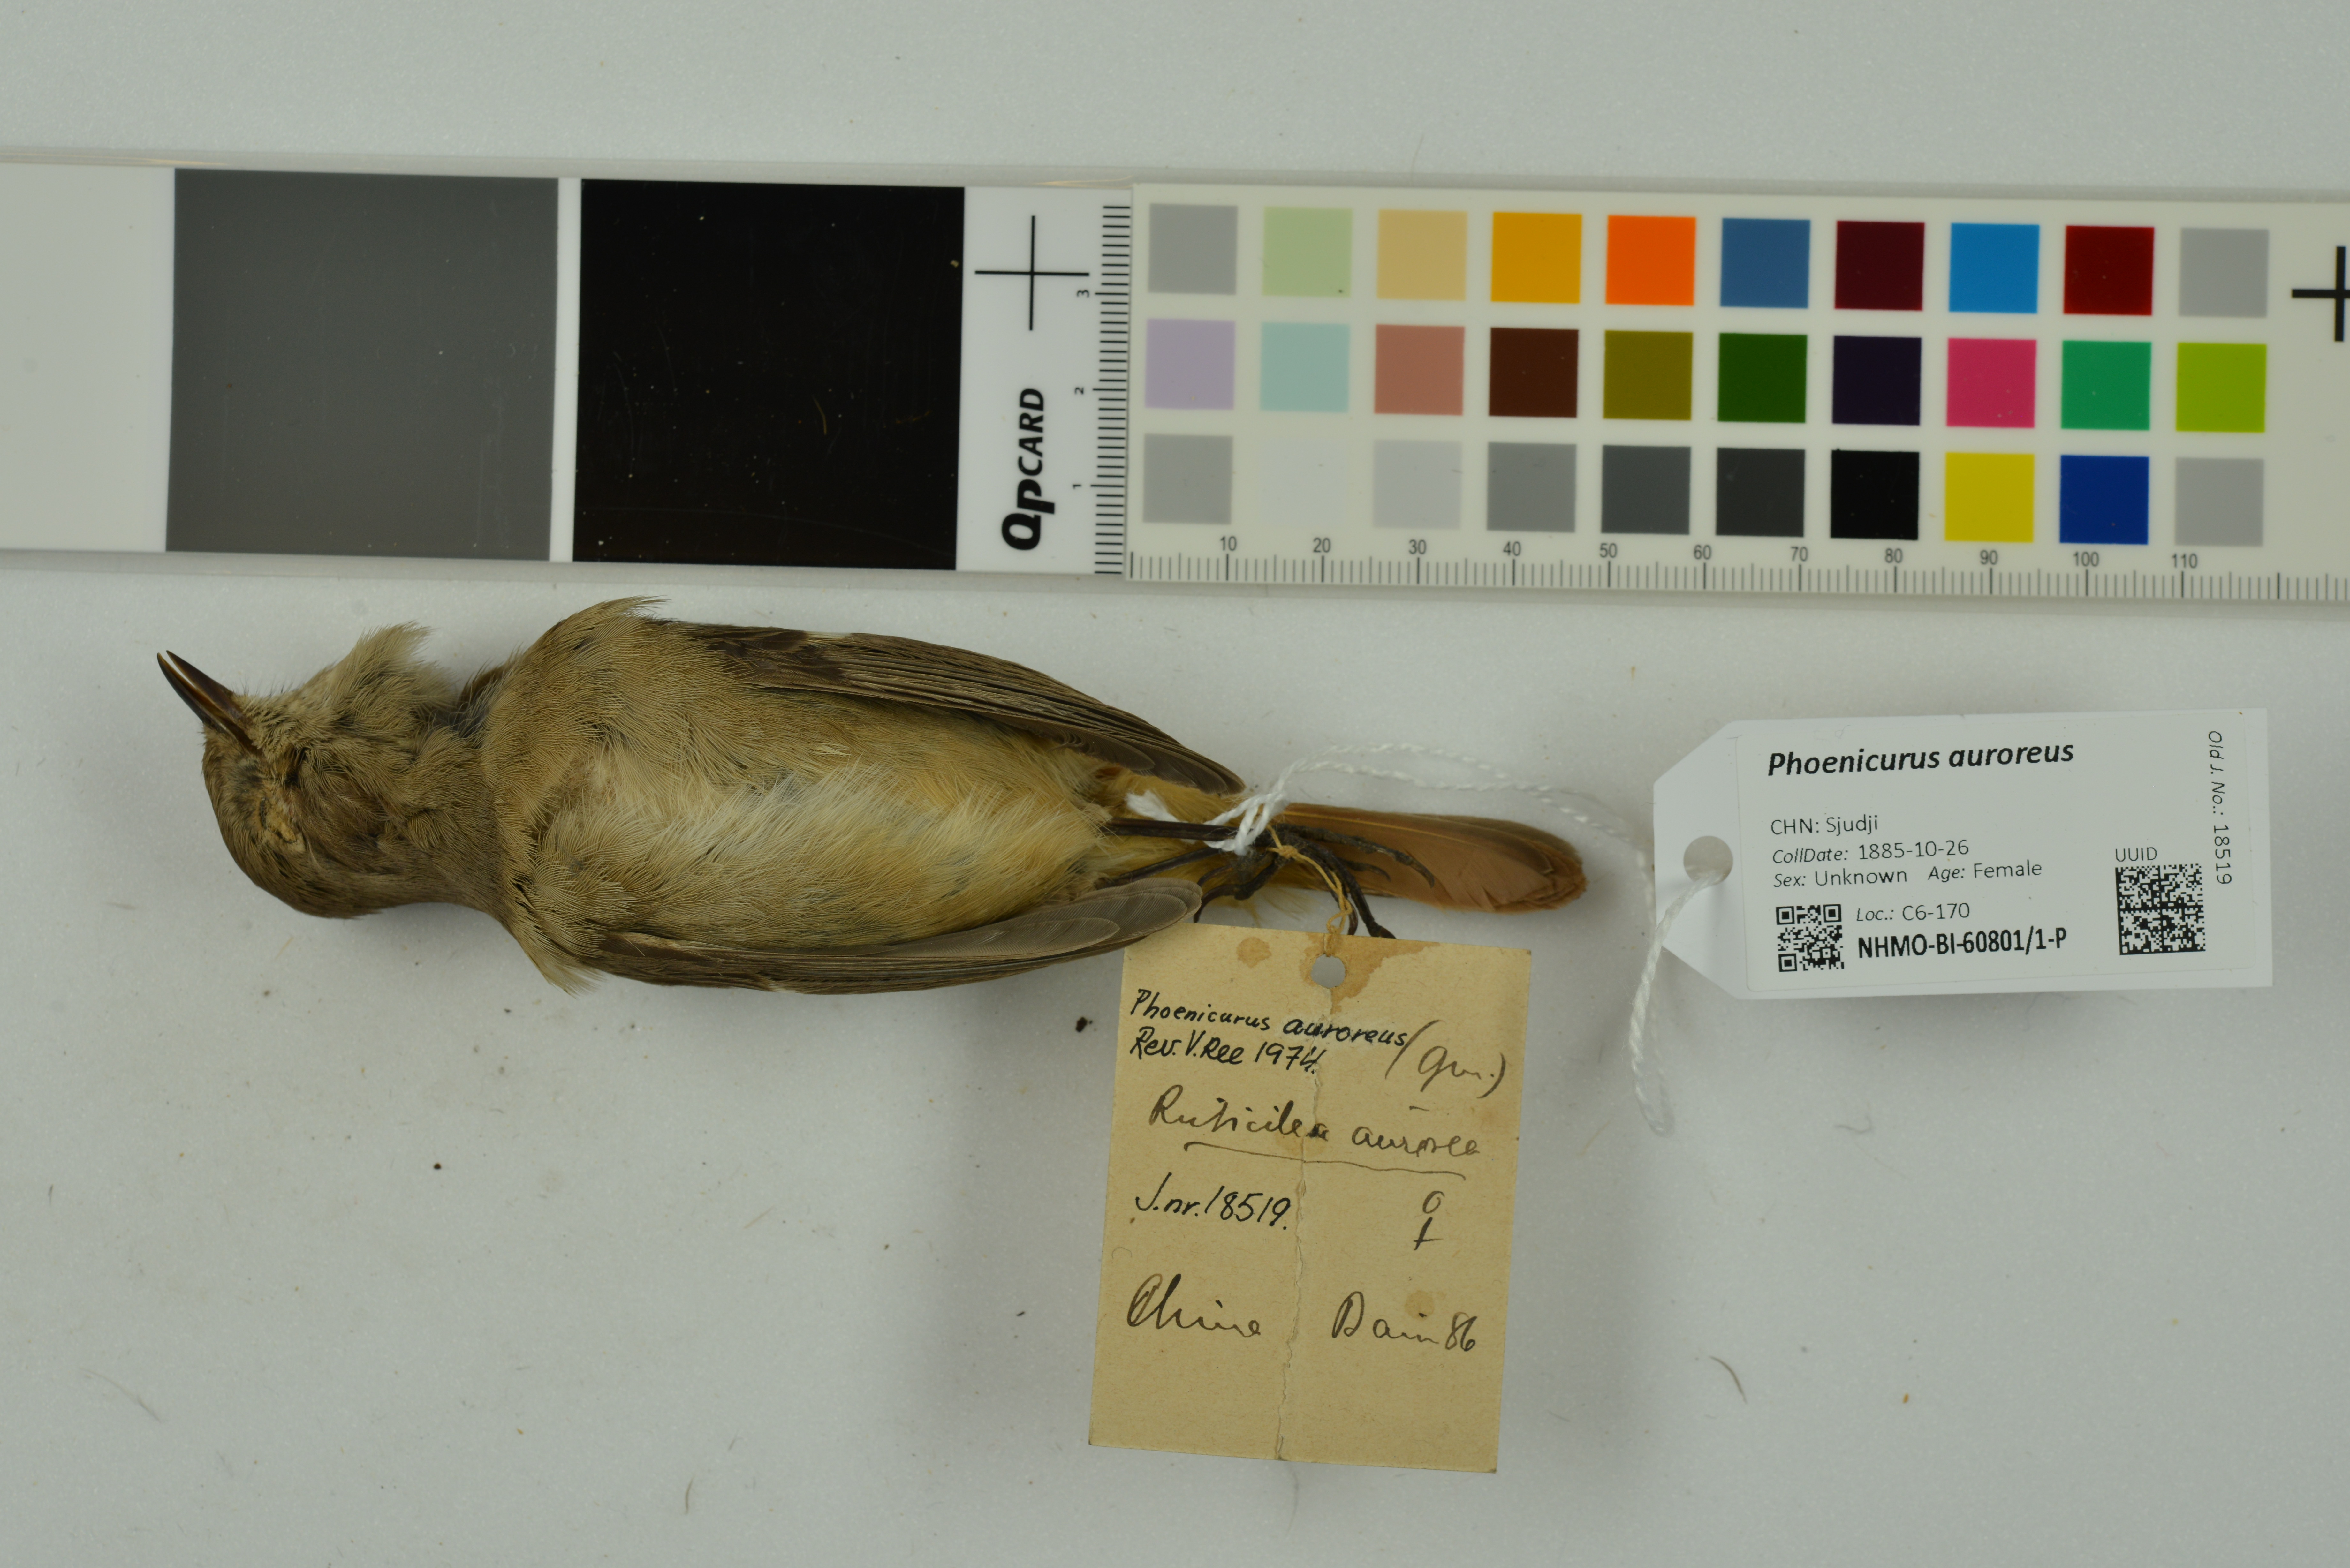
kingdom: Animalia
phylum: Chordata
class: Aves
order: Passeriformes
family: Muscicapidae
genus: Phoenicurus
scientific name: Phoenicurus auroreus
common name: Daurian redstart
